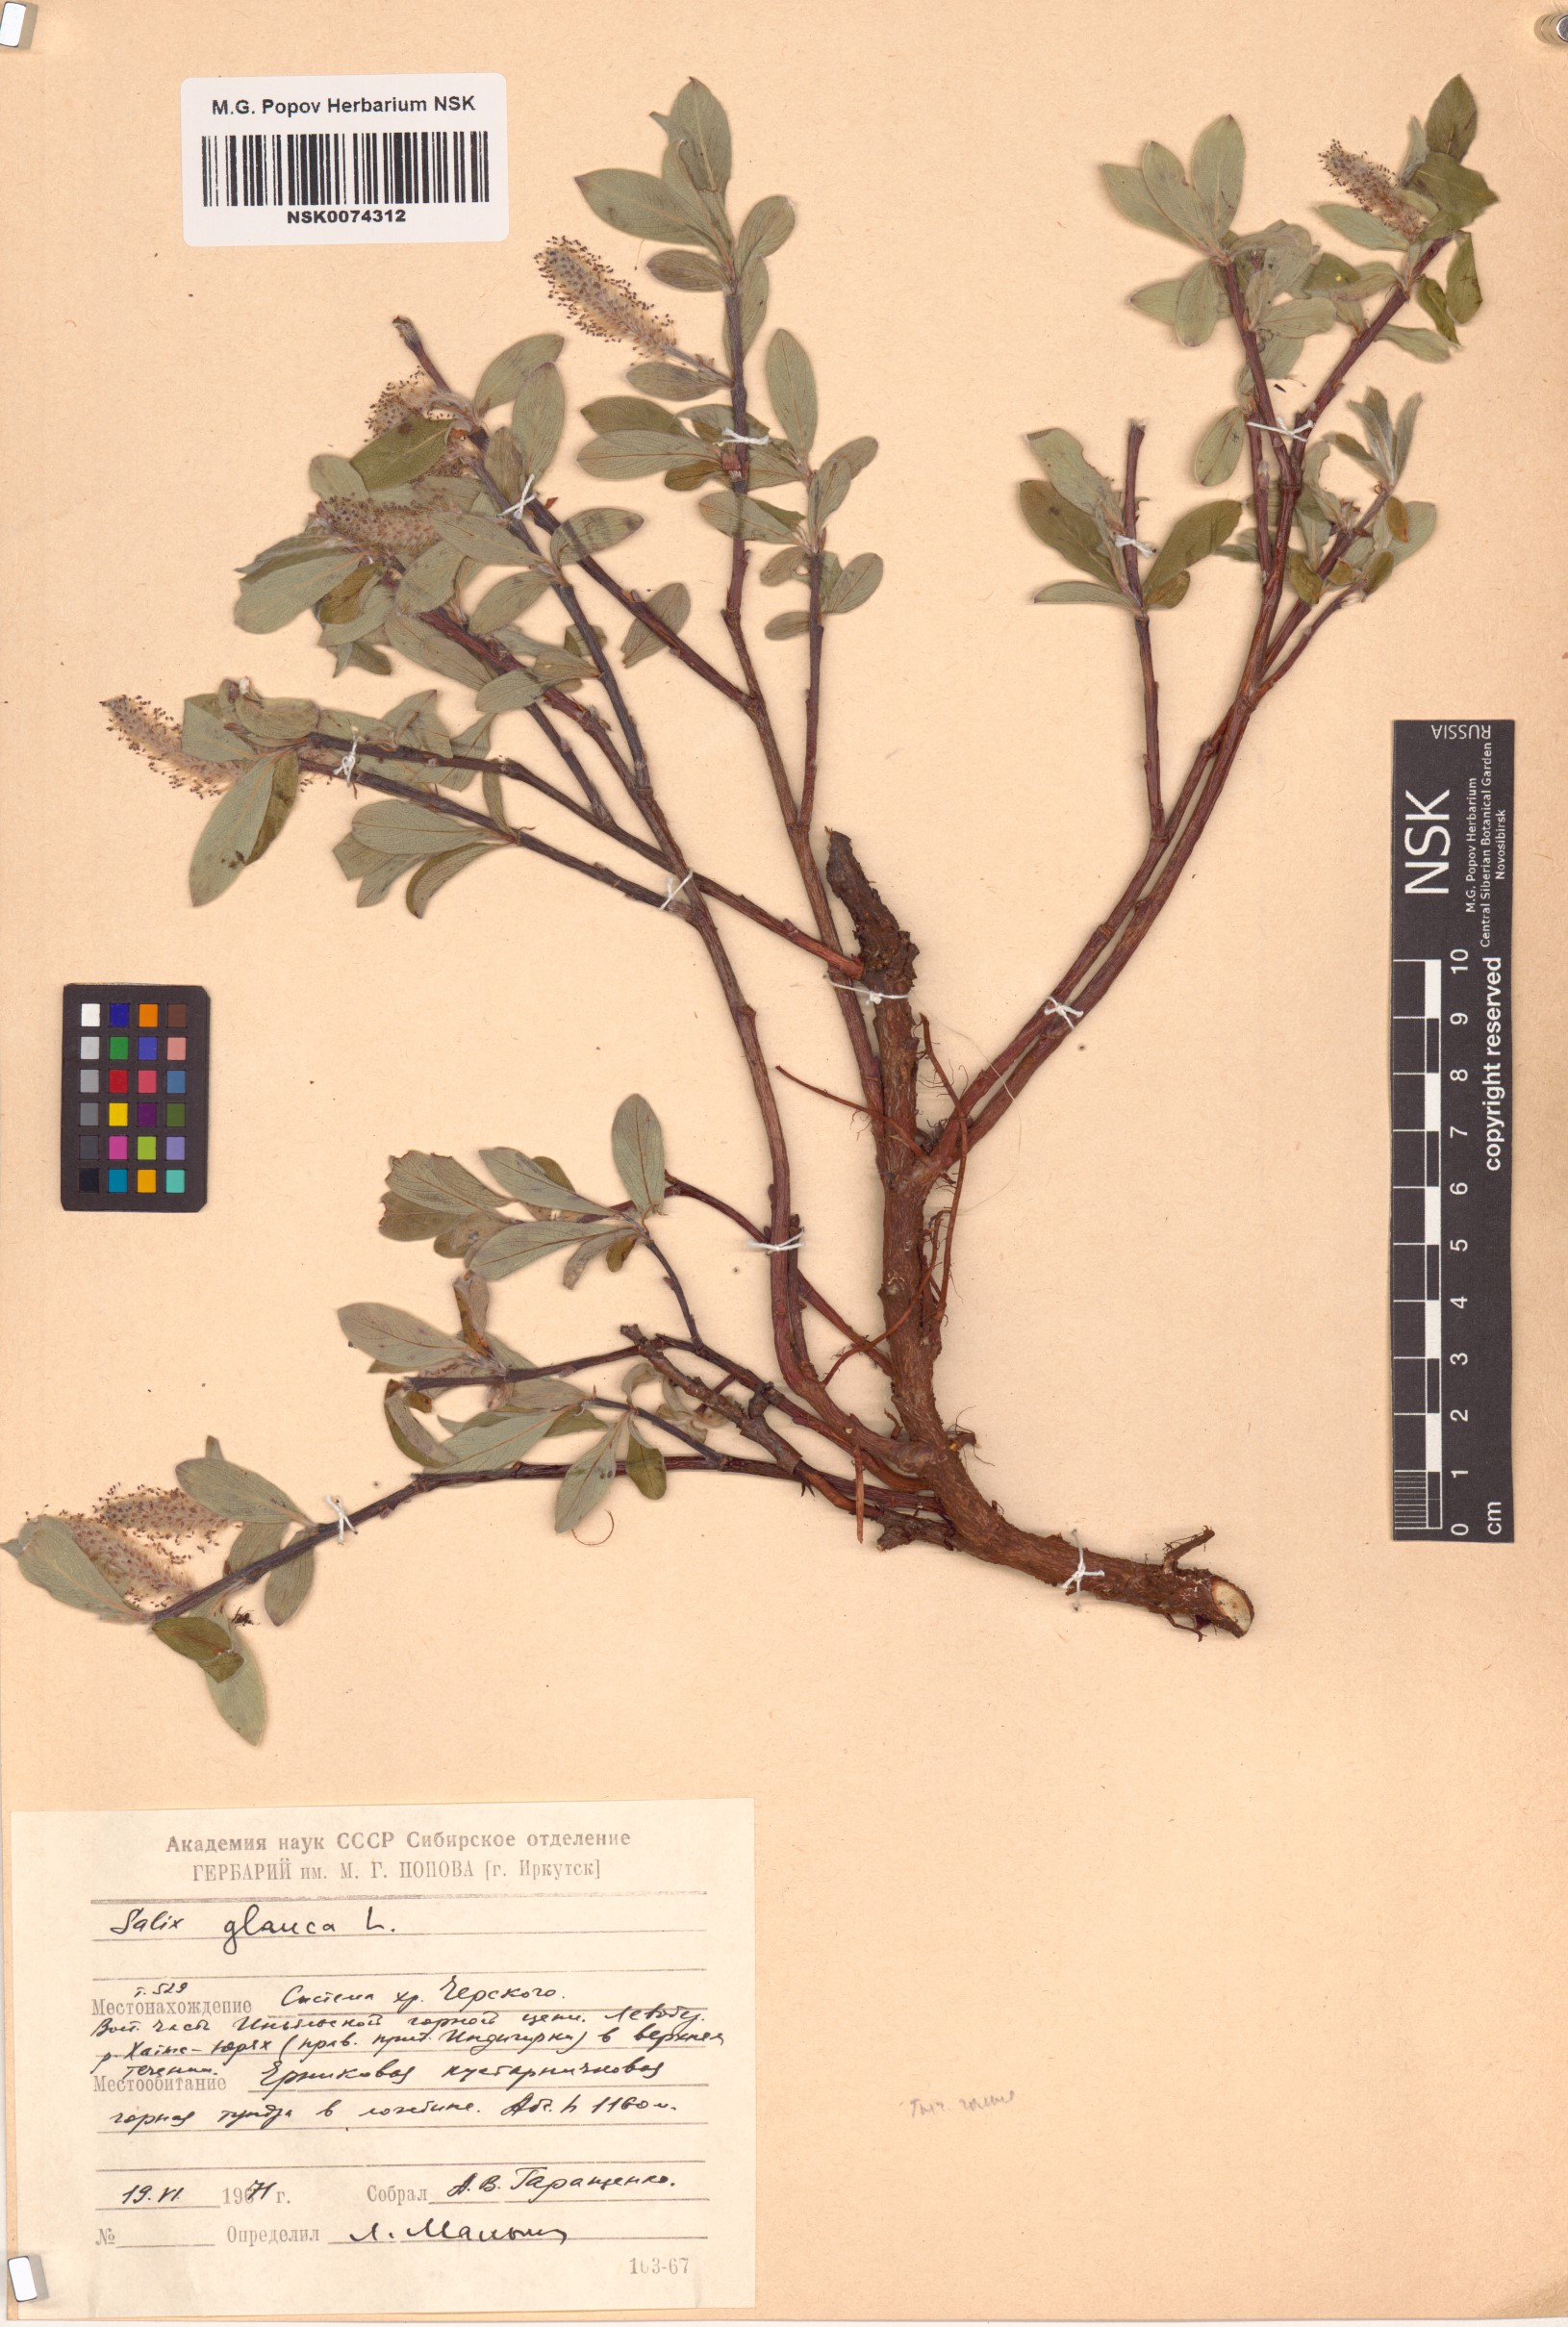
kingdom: Plantae
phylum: Tracheophyta
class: Magnoliopsida
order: Malpighiales
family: Salicaceae
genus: Salix
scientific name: Salix glauca
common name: Glaucous willow
